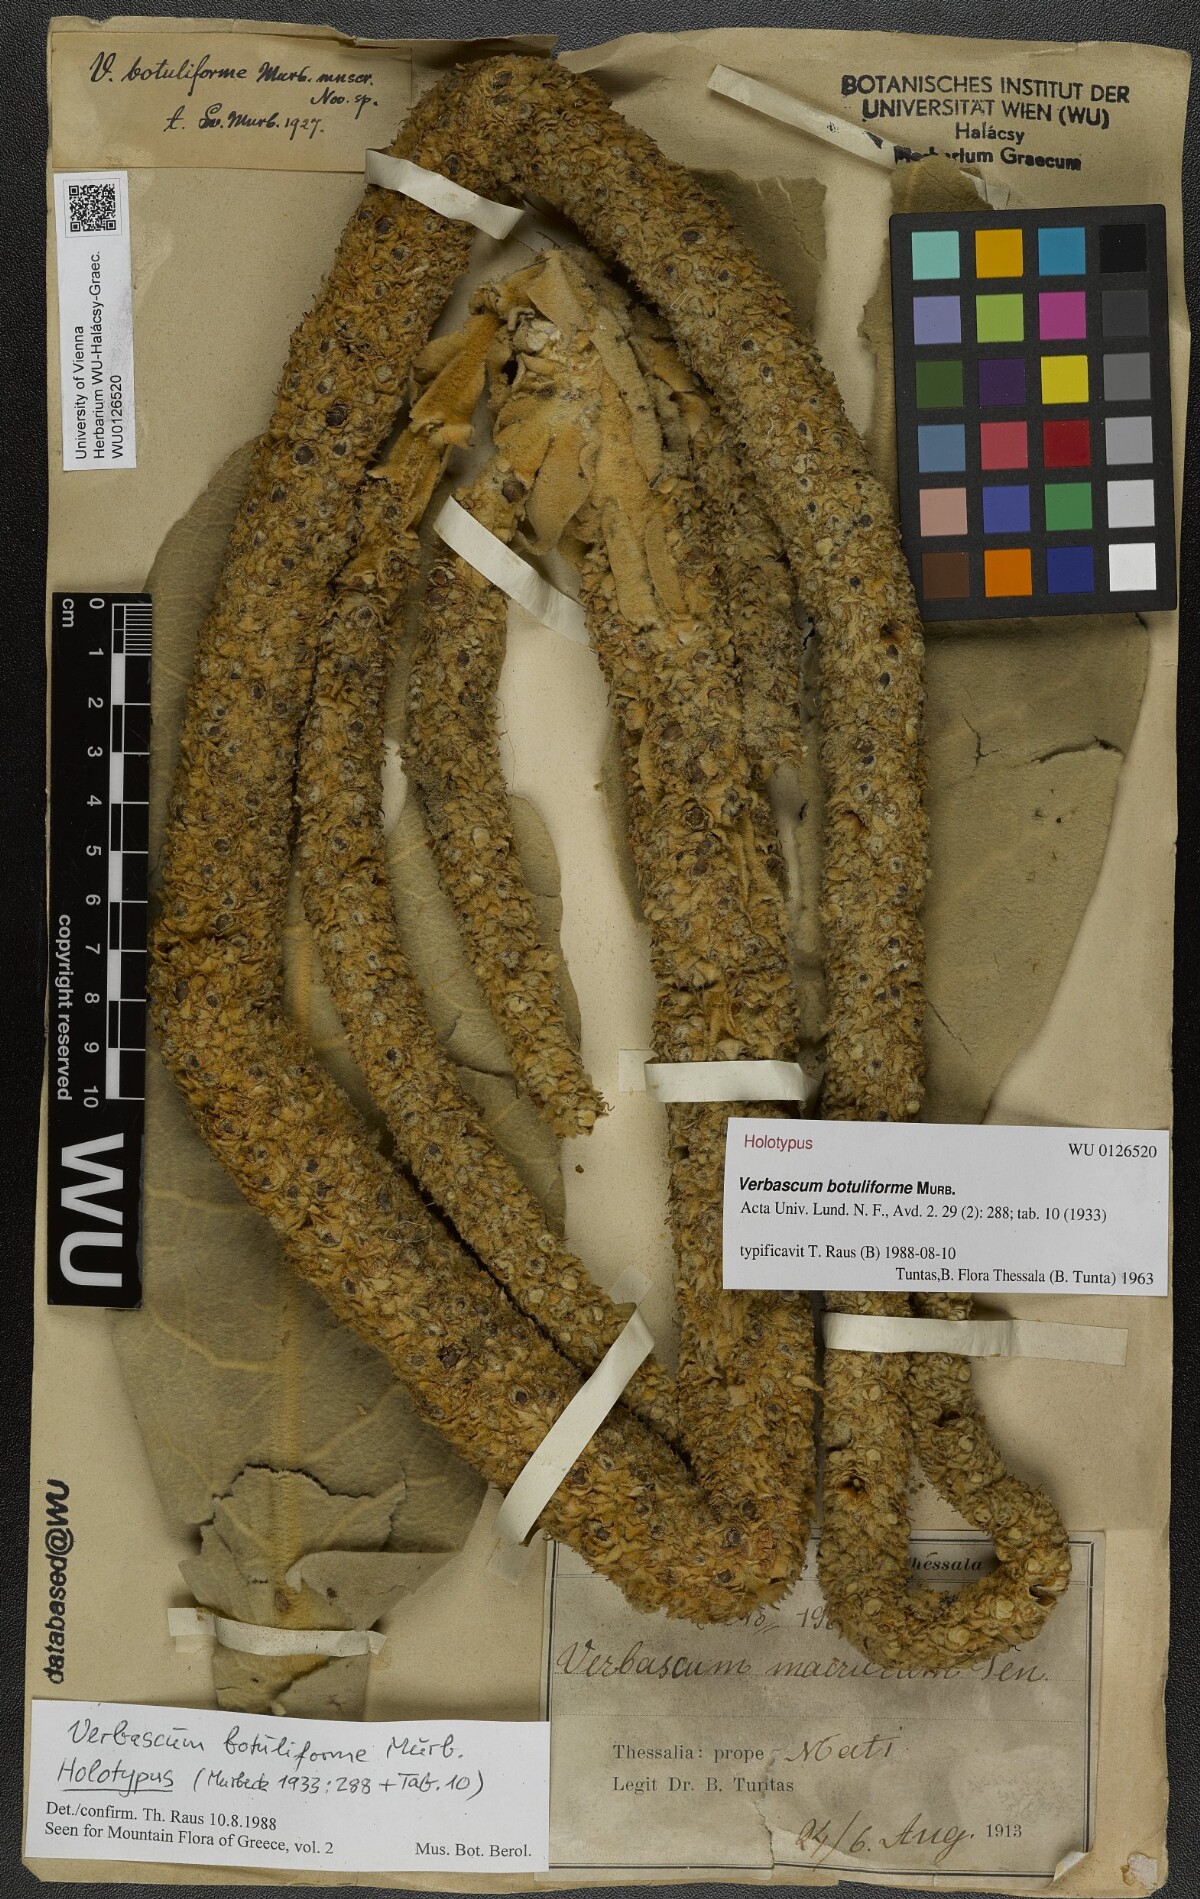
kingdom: Plantae
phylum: Tracheophyta
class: Magnoliopsida
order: Lamiales
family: Scrophulariaceae
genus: Verbascum
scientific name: Verbascum botuliforme
